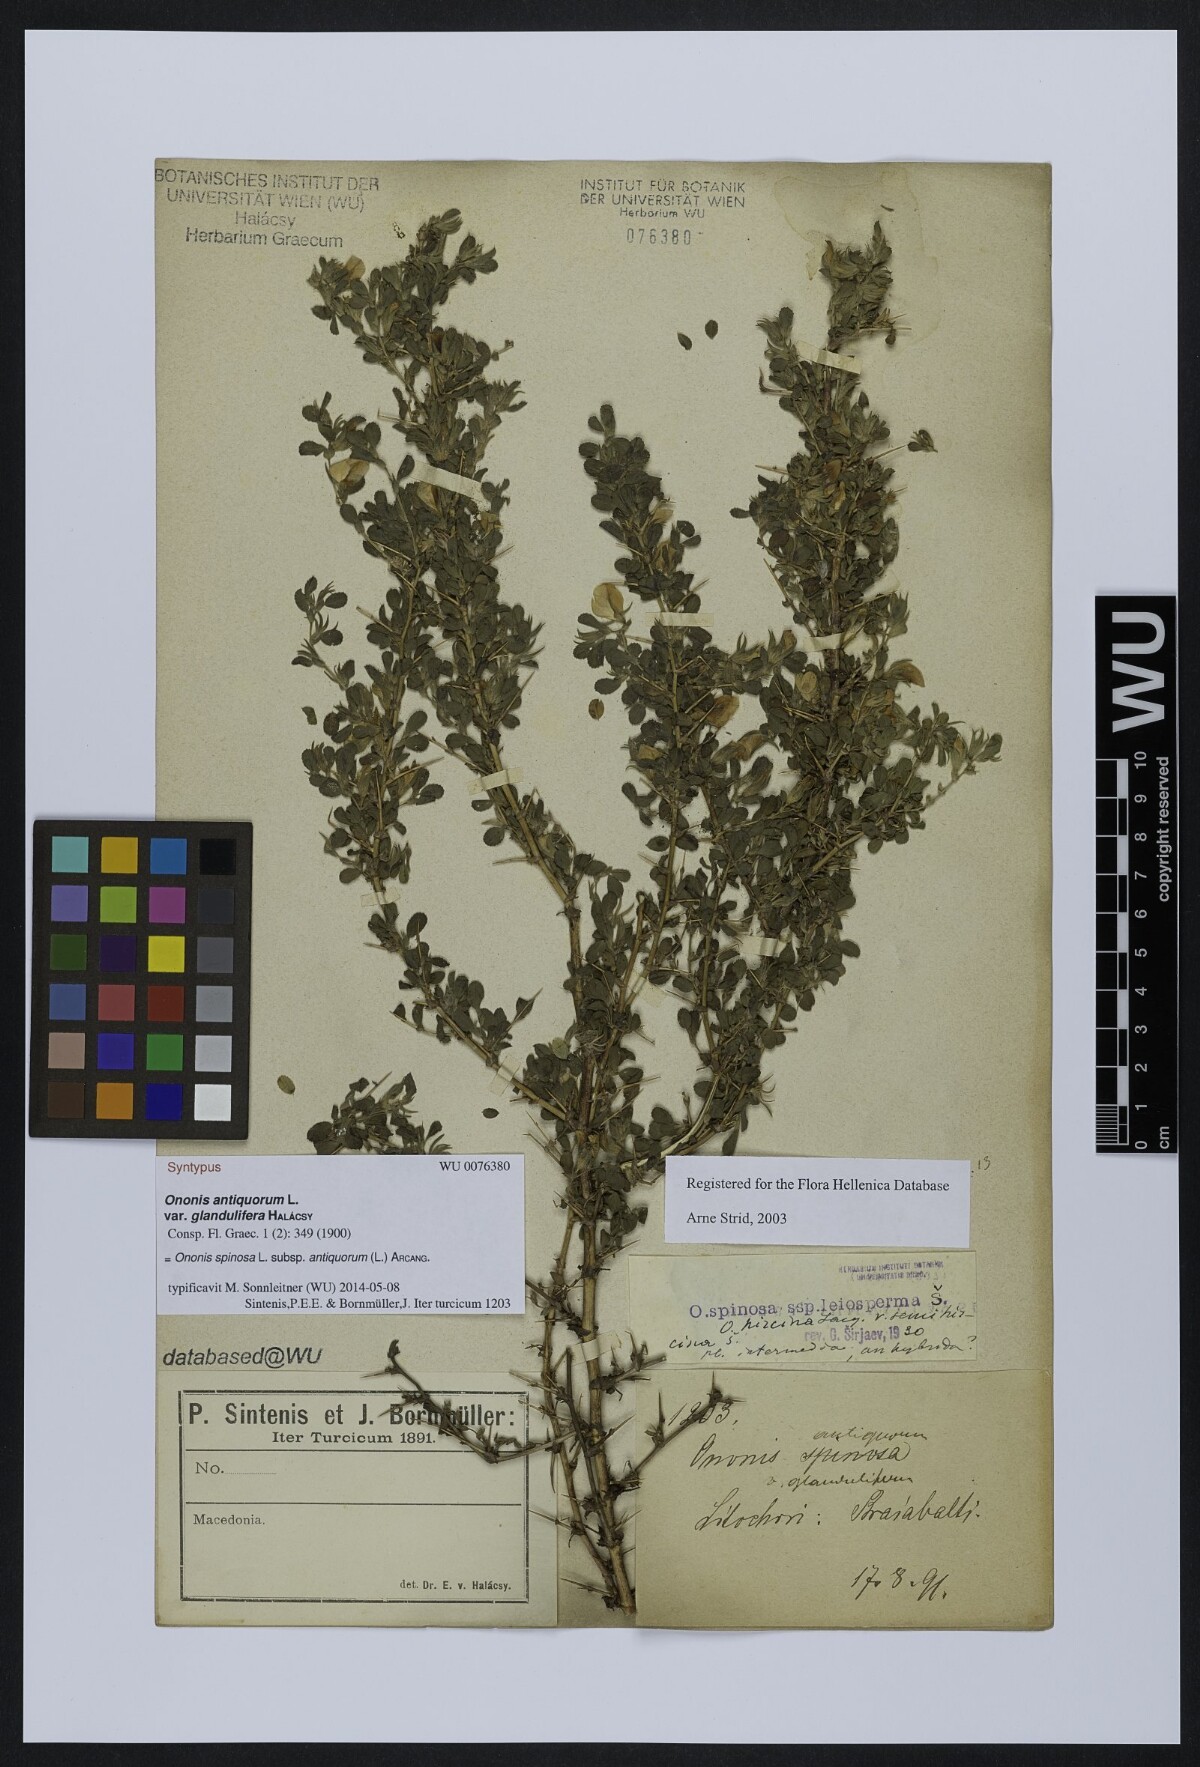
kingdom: Plantae
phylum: Tracheophyta
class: Magnoliopsida
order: Fabales
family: Fabaceae
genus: Ononis
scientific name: Ononis spinosa
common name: Spiny restharrow
